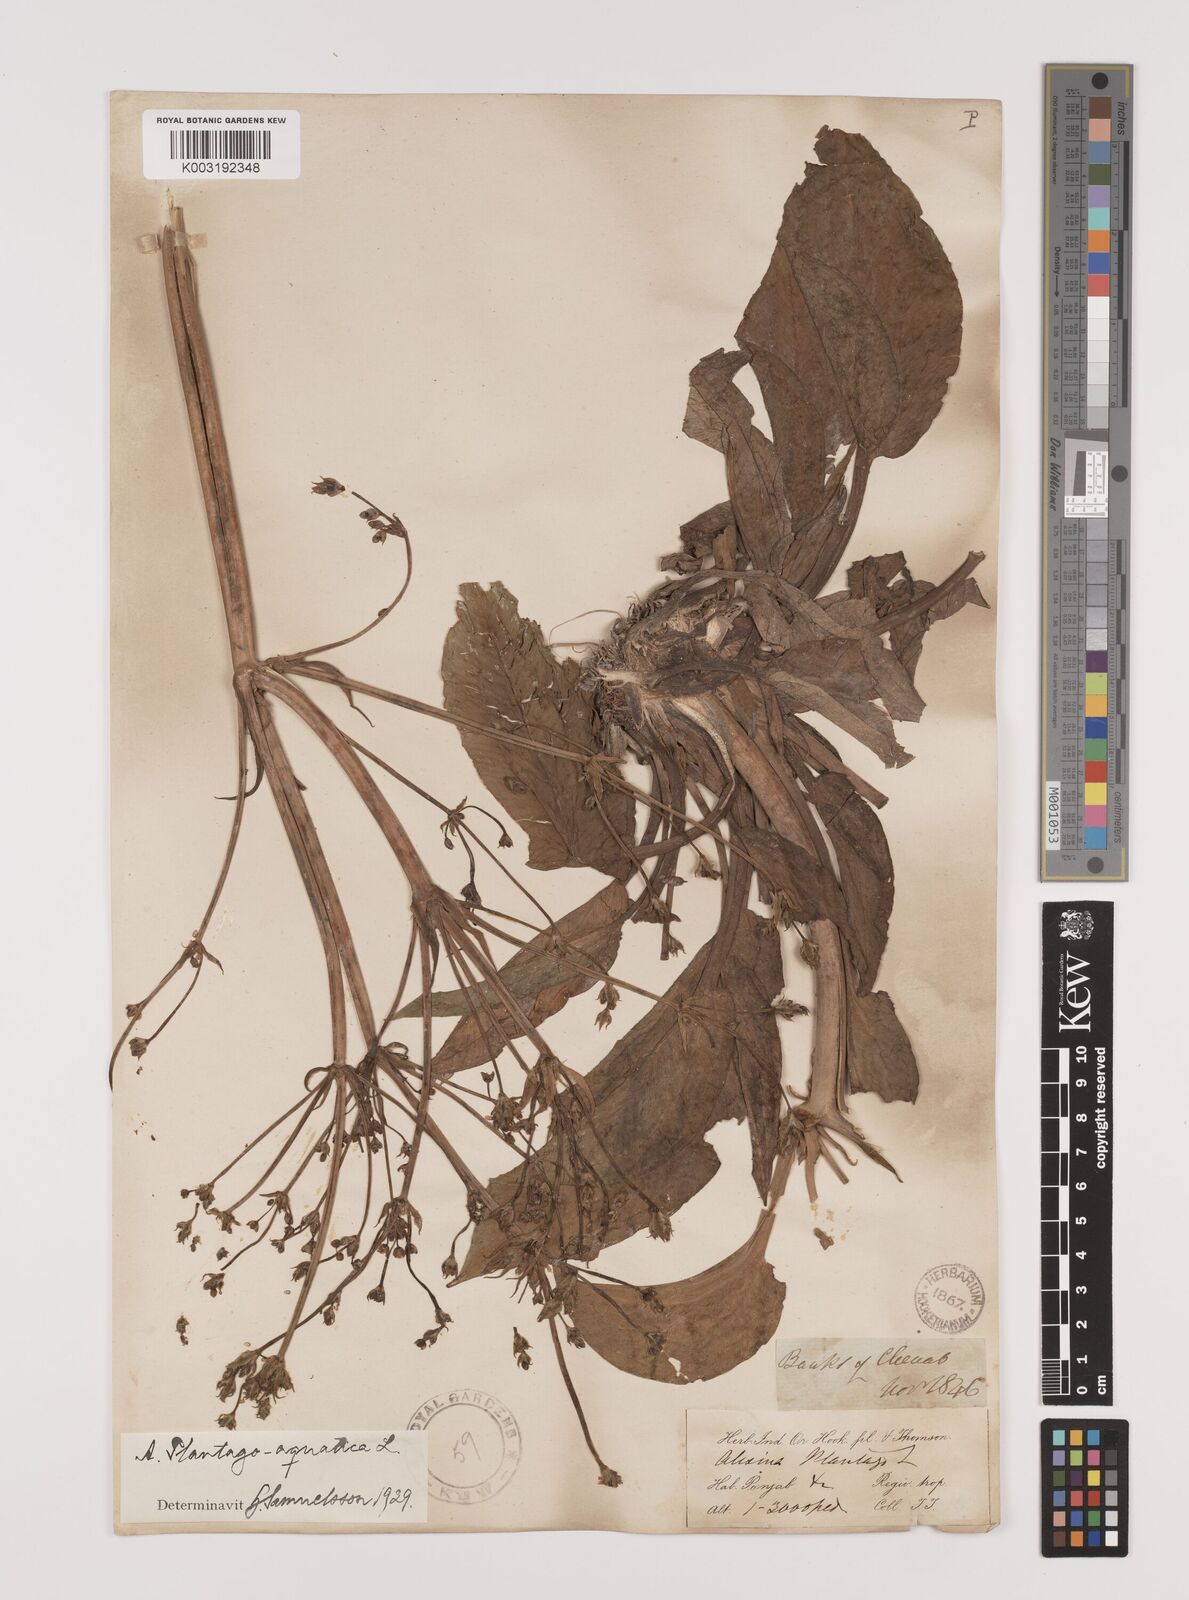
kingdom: Plantae
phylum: Tracheophyta
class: Liliopsida
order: Alismatales
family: Alismataceae
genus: Alisma
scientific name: Alisma plantago-aquatica
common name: Water-plantain
